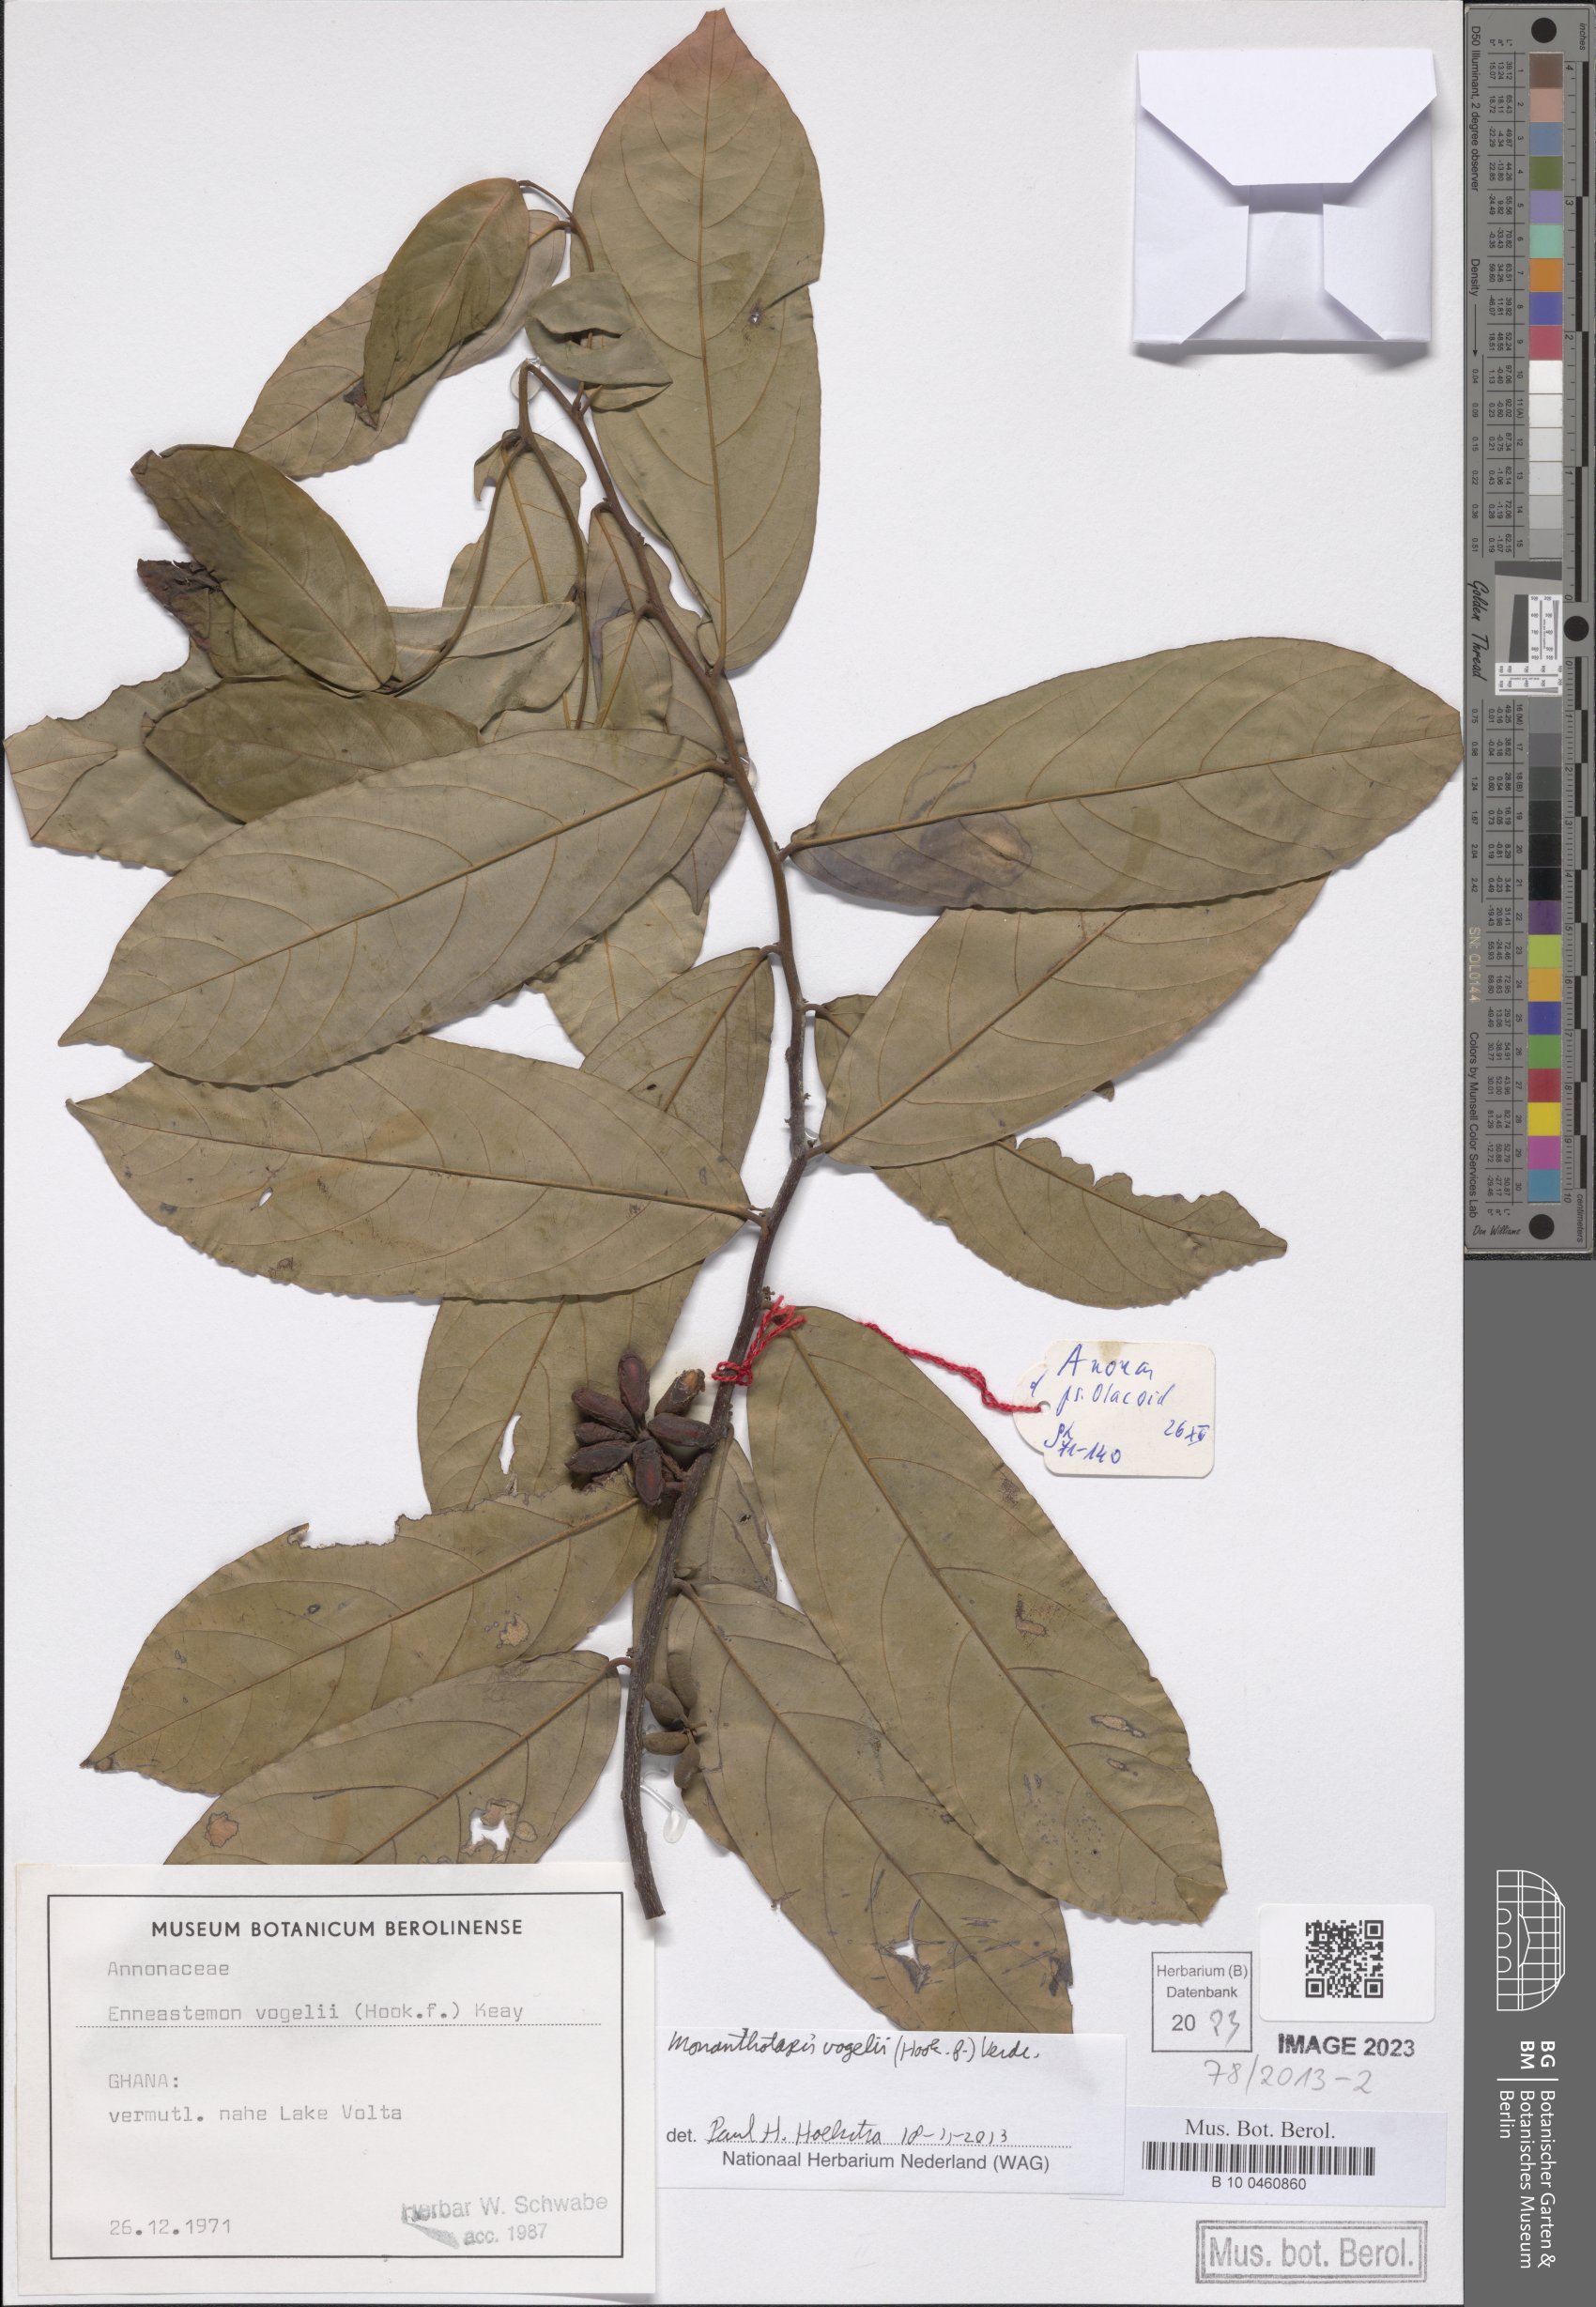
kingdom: Plantae
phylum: Tracheophyta
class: Magnoliopsida
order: Magnoliales
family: Annonaceae
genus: Monanthotaxis
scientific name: Monanthotaxis vogelii
